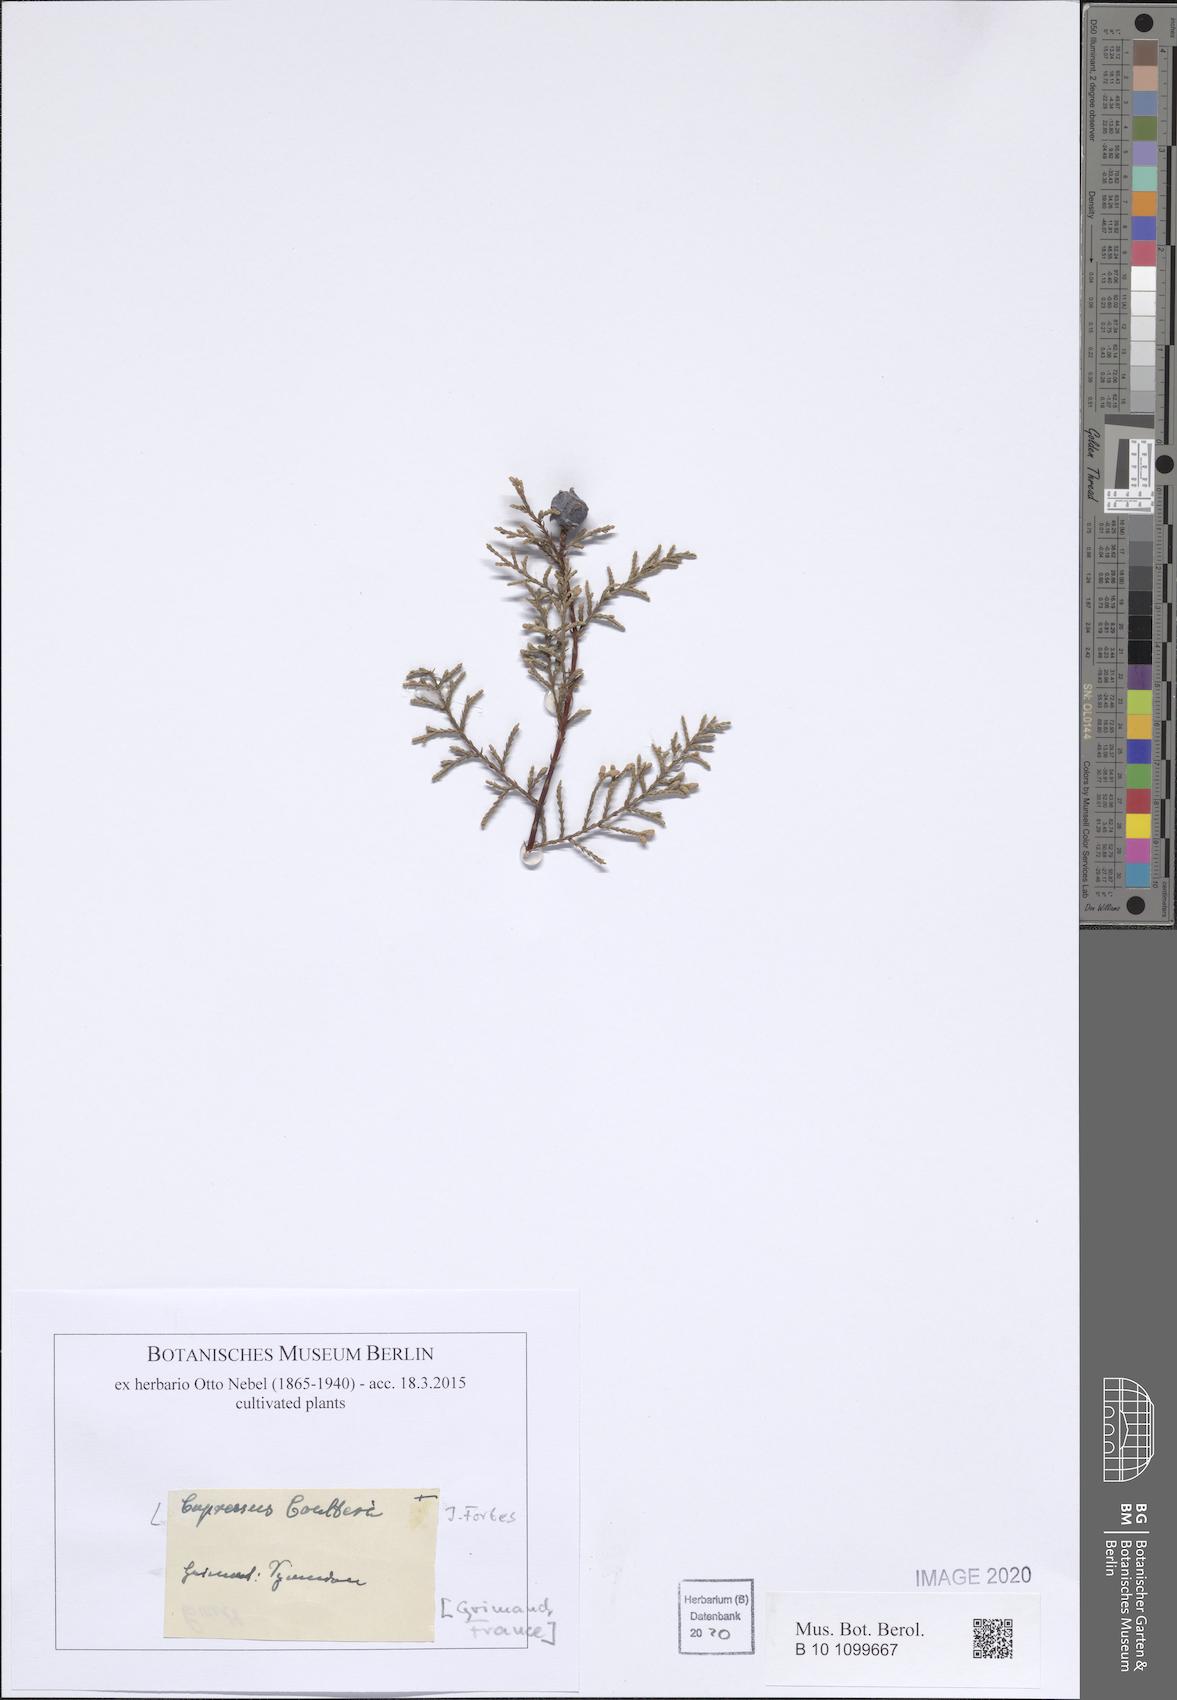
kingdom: Plantae
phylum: Tracheophyta
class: Pinopsida
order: Pinales
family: Cupressaceae
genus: Cupressus
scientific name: Cupressus lusitanica
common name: Mexican cypress
